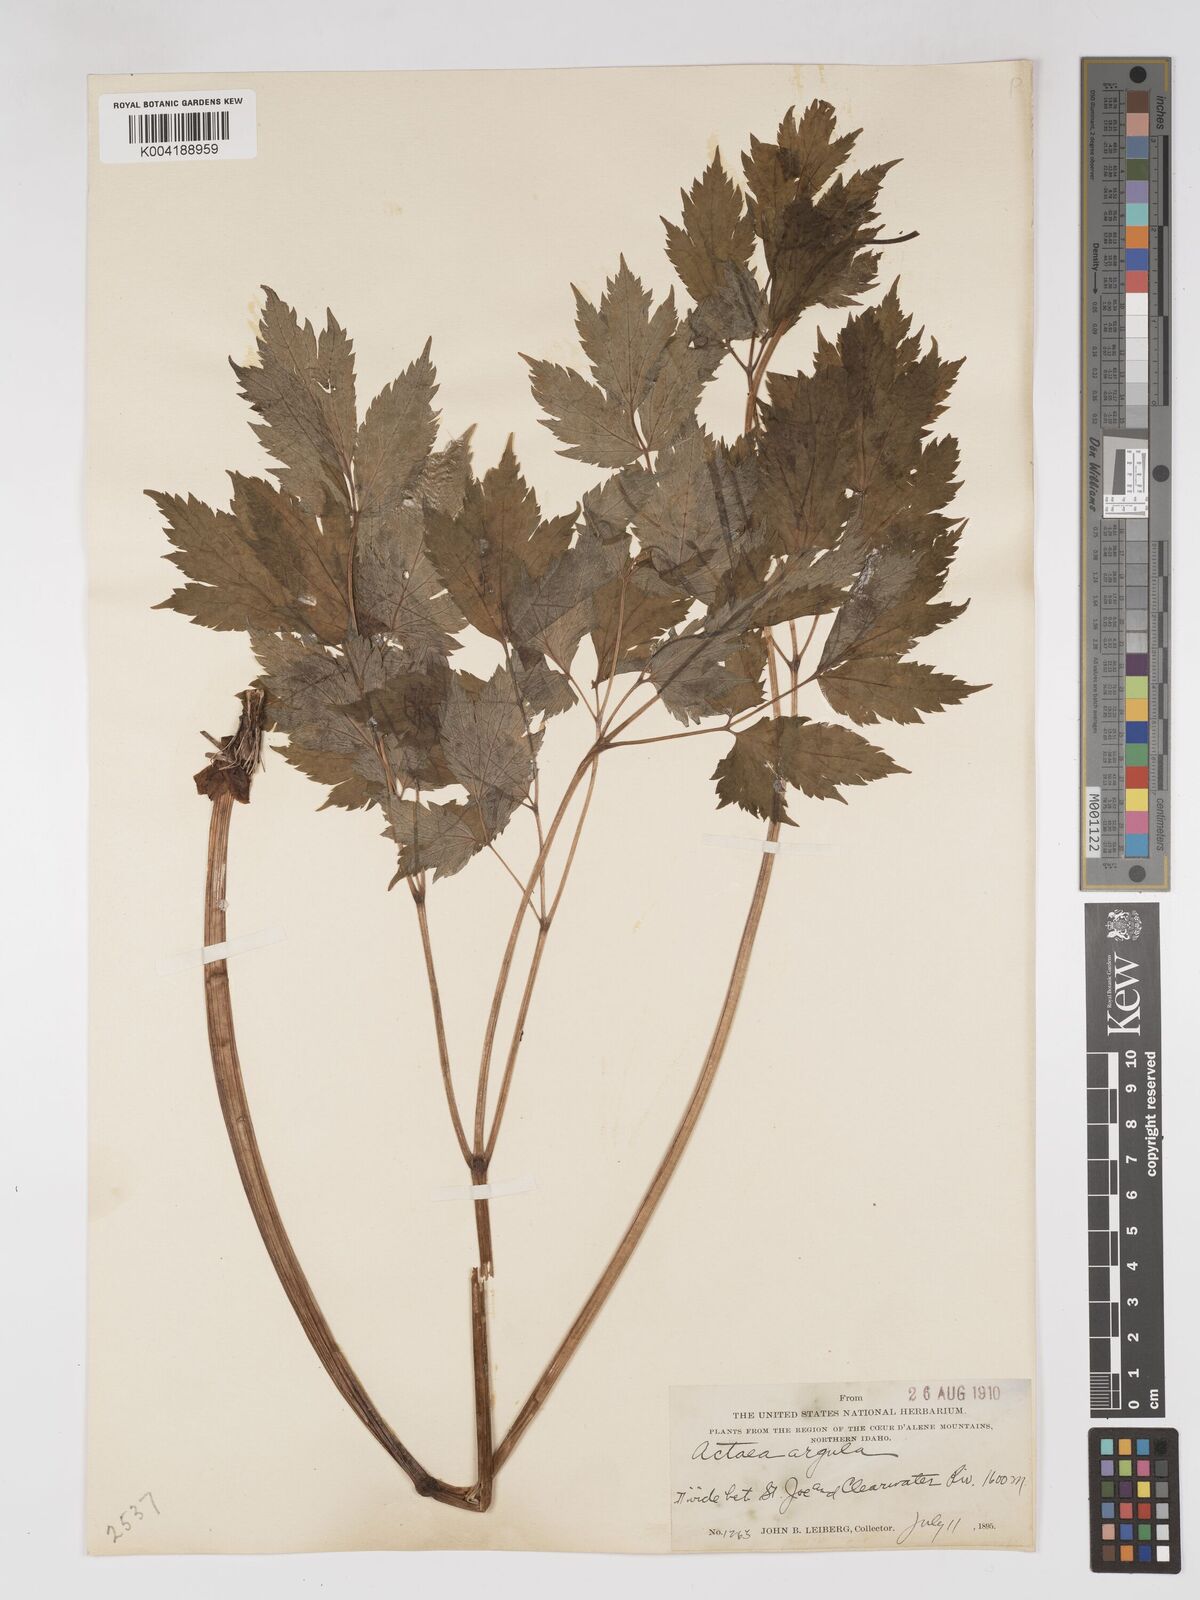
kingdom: Plantae
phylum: Tracheophyta
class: Magnoliopsida
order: Ranunculales
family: Ranunculaceae
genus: Actaea
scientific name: Actaea rubra
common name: Red baneberry
